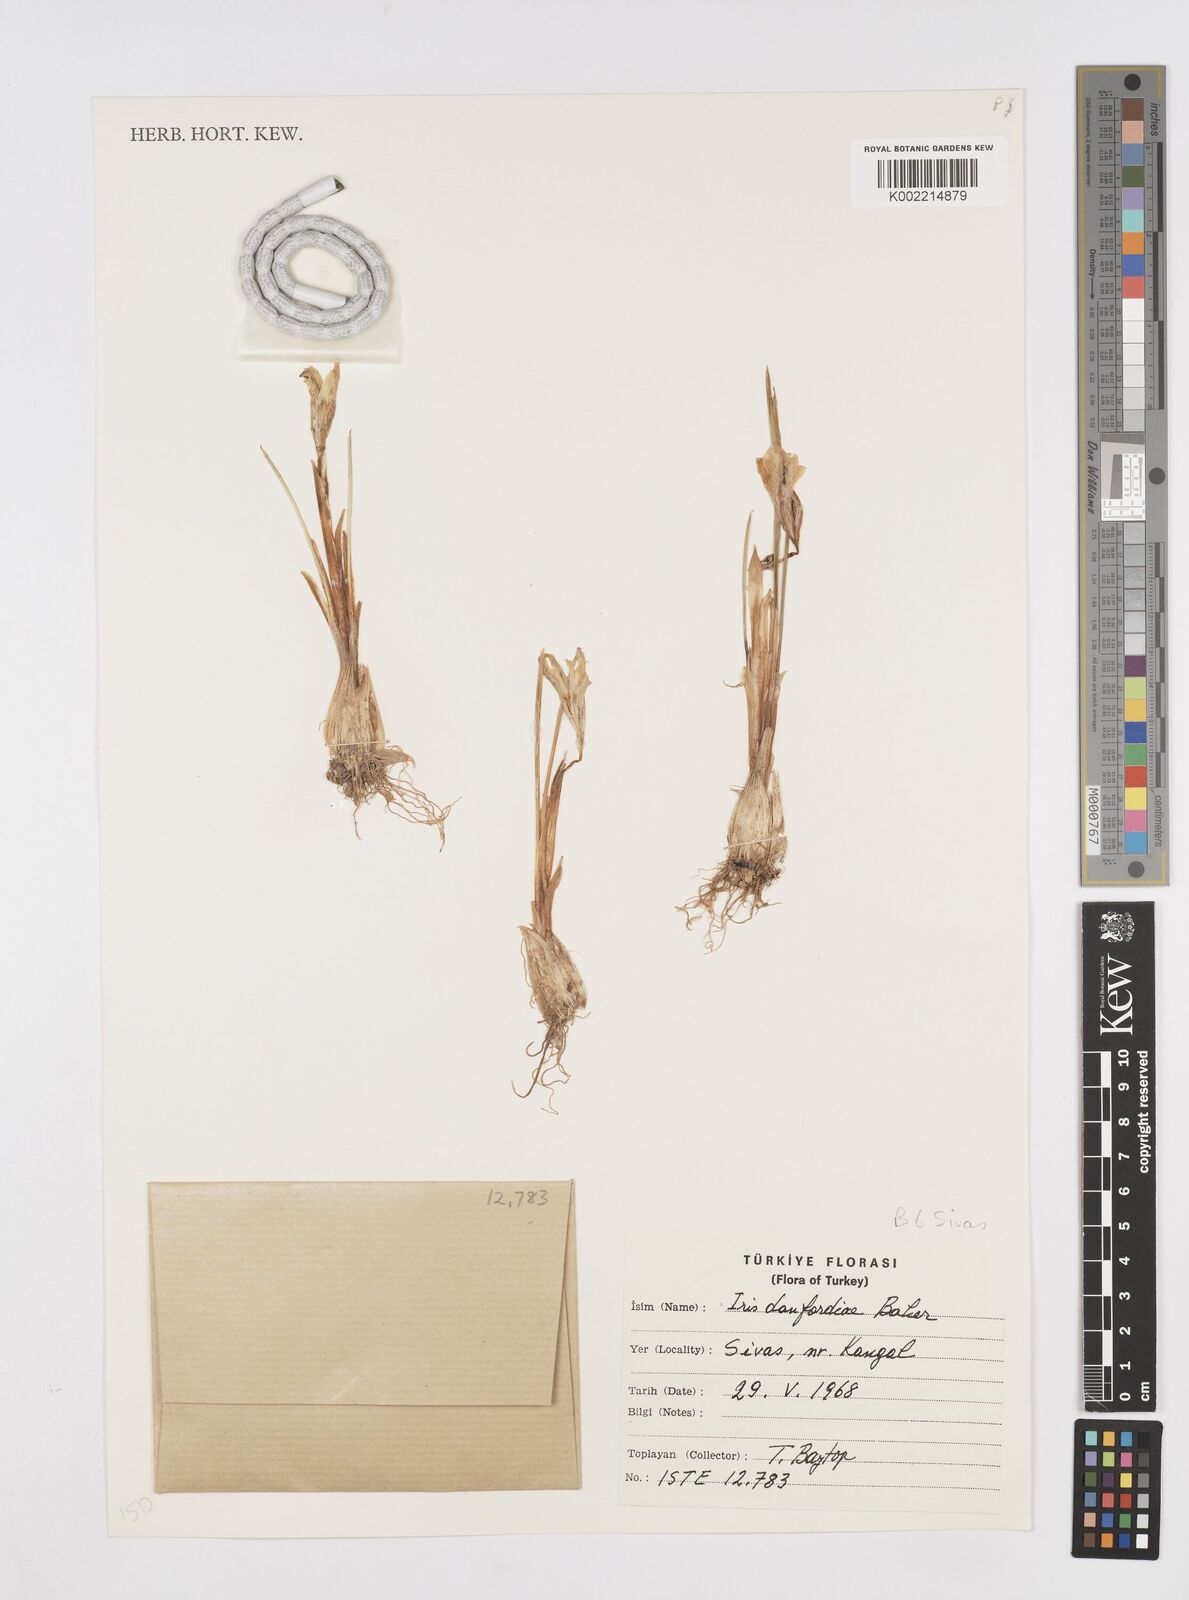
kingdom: Plantae
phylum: Tracheophyta
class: Liliopsida
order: Asparagales
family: Iridaceae
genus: Iris
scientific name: Iris danfordiae
